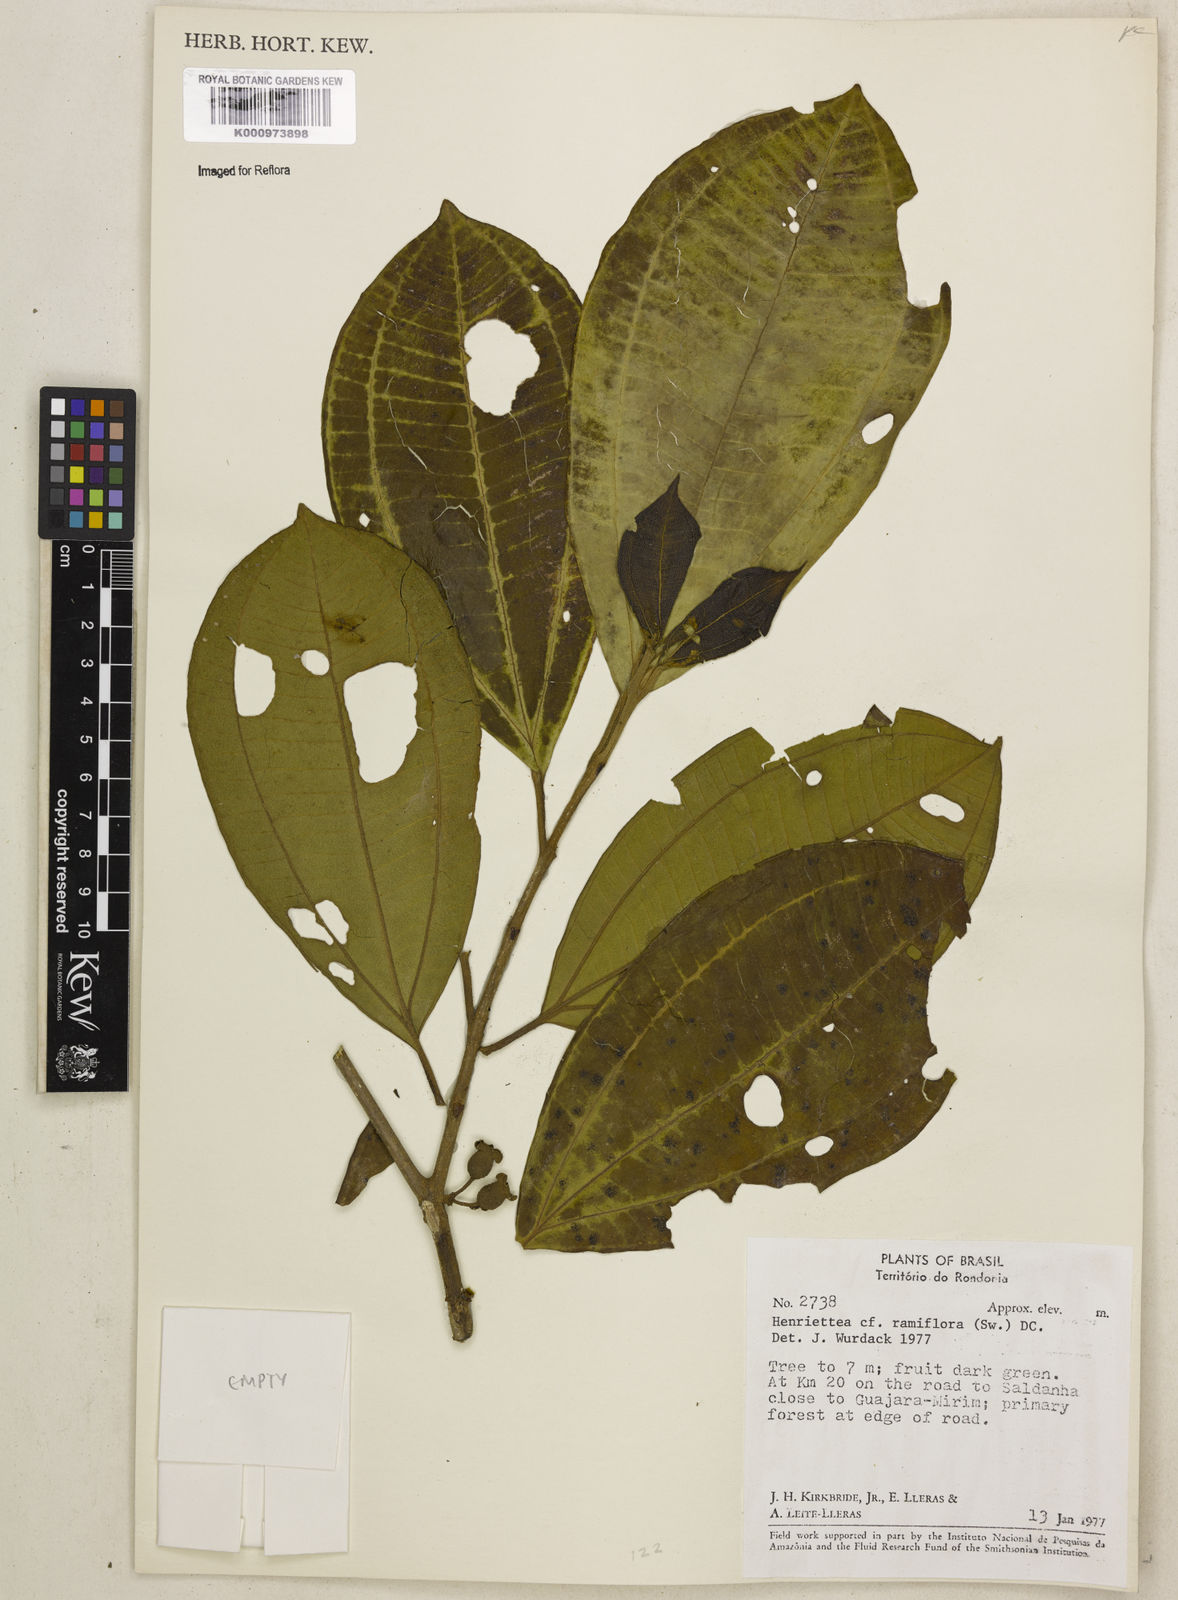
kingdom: Plantae
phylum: Tracheophyta
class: Magnoliopsida
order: Myrtales
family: Melastomataceae
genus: Henriettea
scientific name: Henriettea ramiflora
